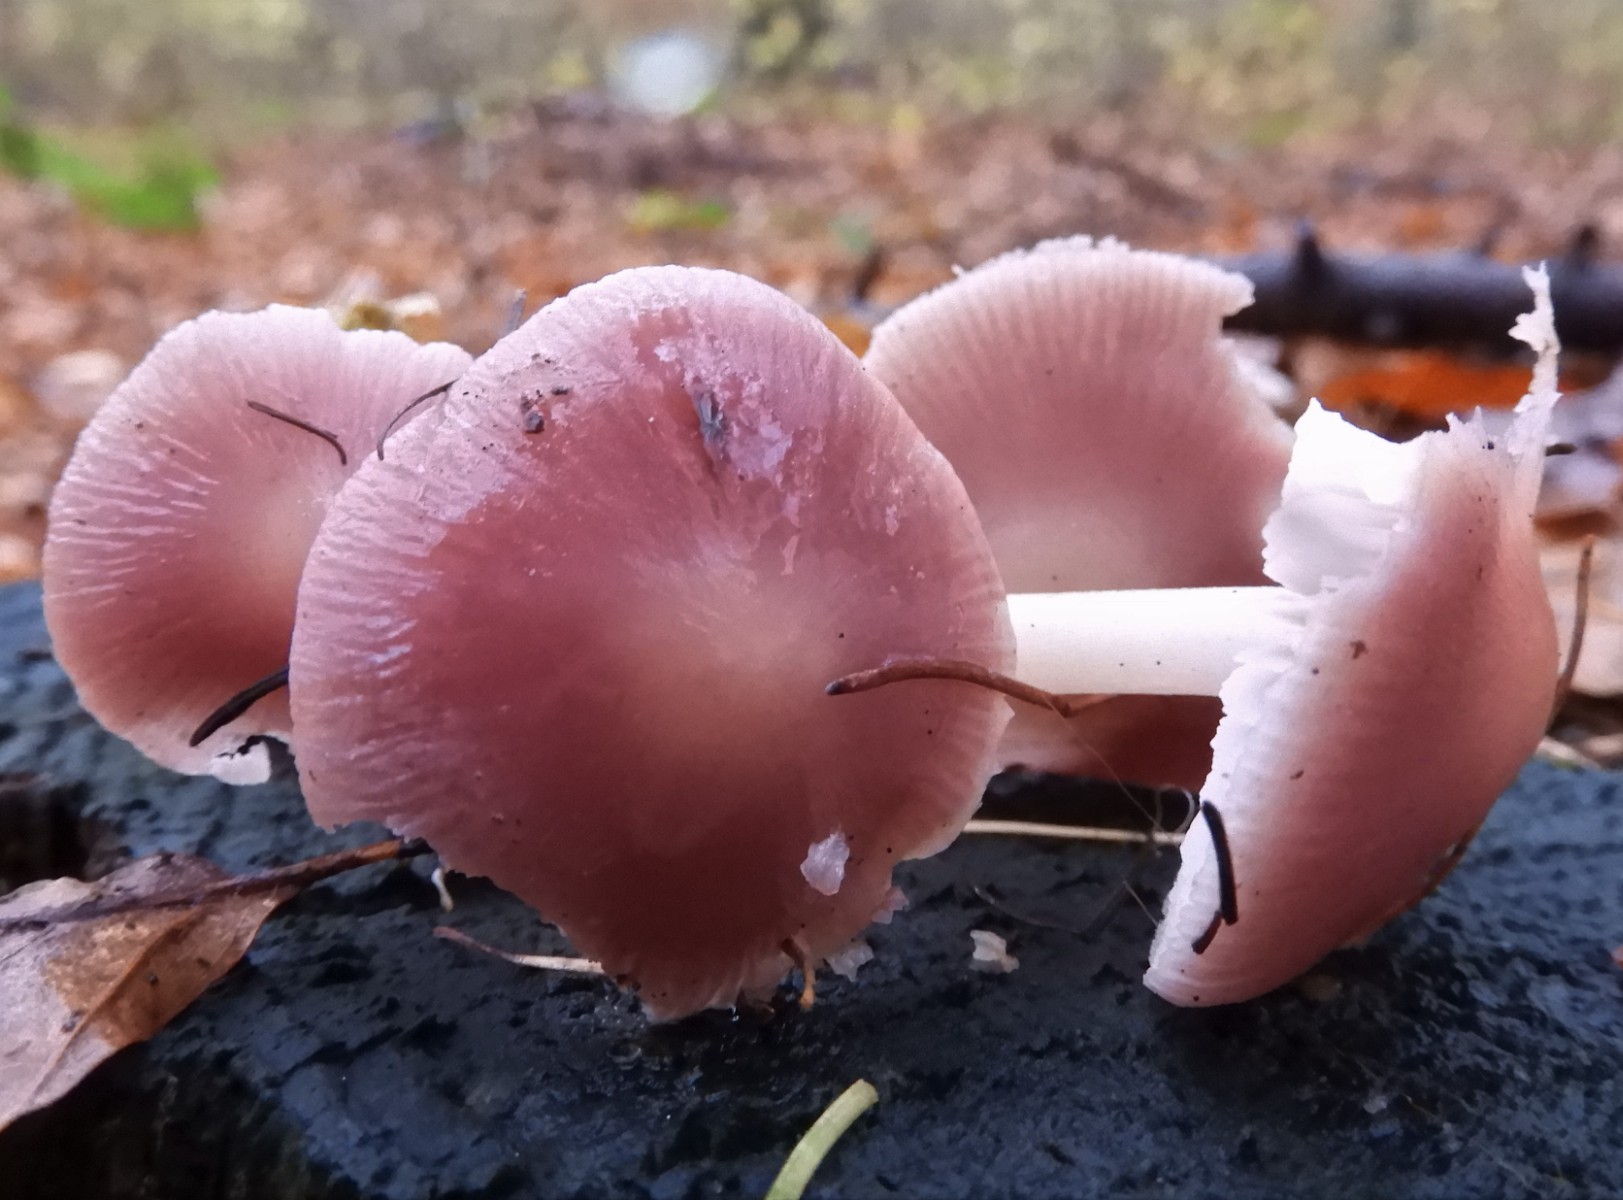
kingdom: Fungi
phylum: Basidiomycota
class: Agaricomycetes
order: Agaricales
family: Mycenaceae
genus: Mycena
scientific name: Mycena rosea
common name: rosa huesvamp
